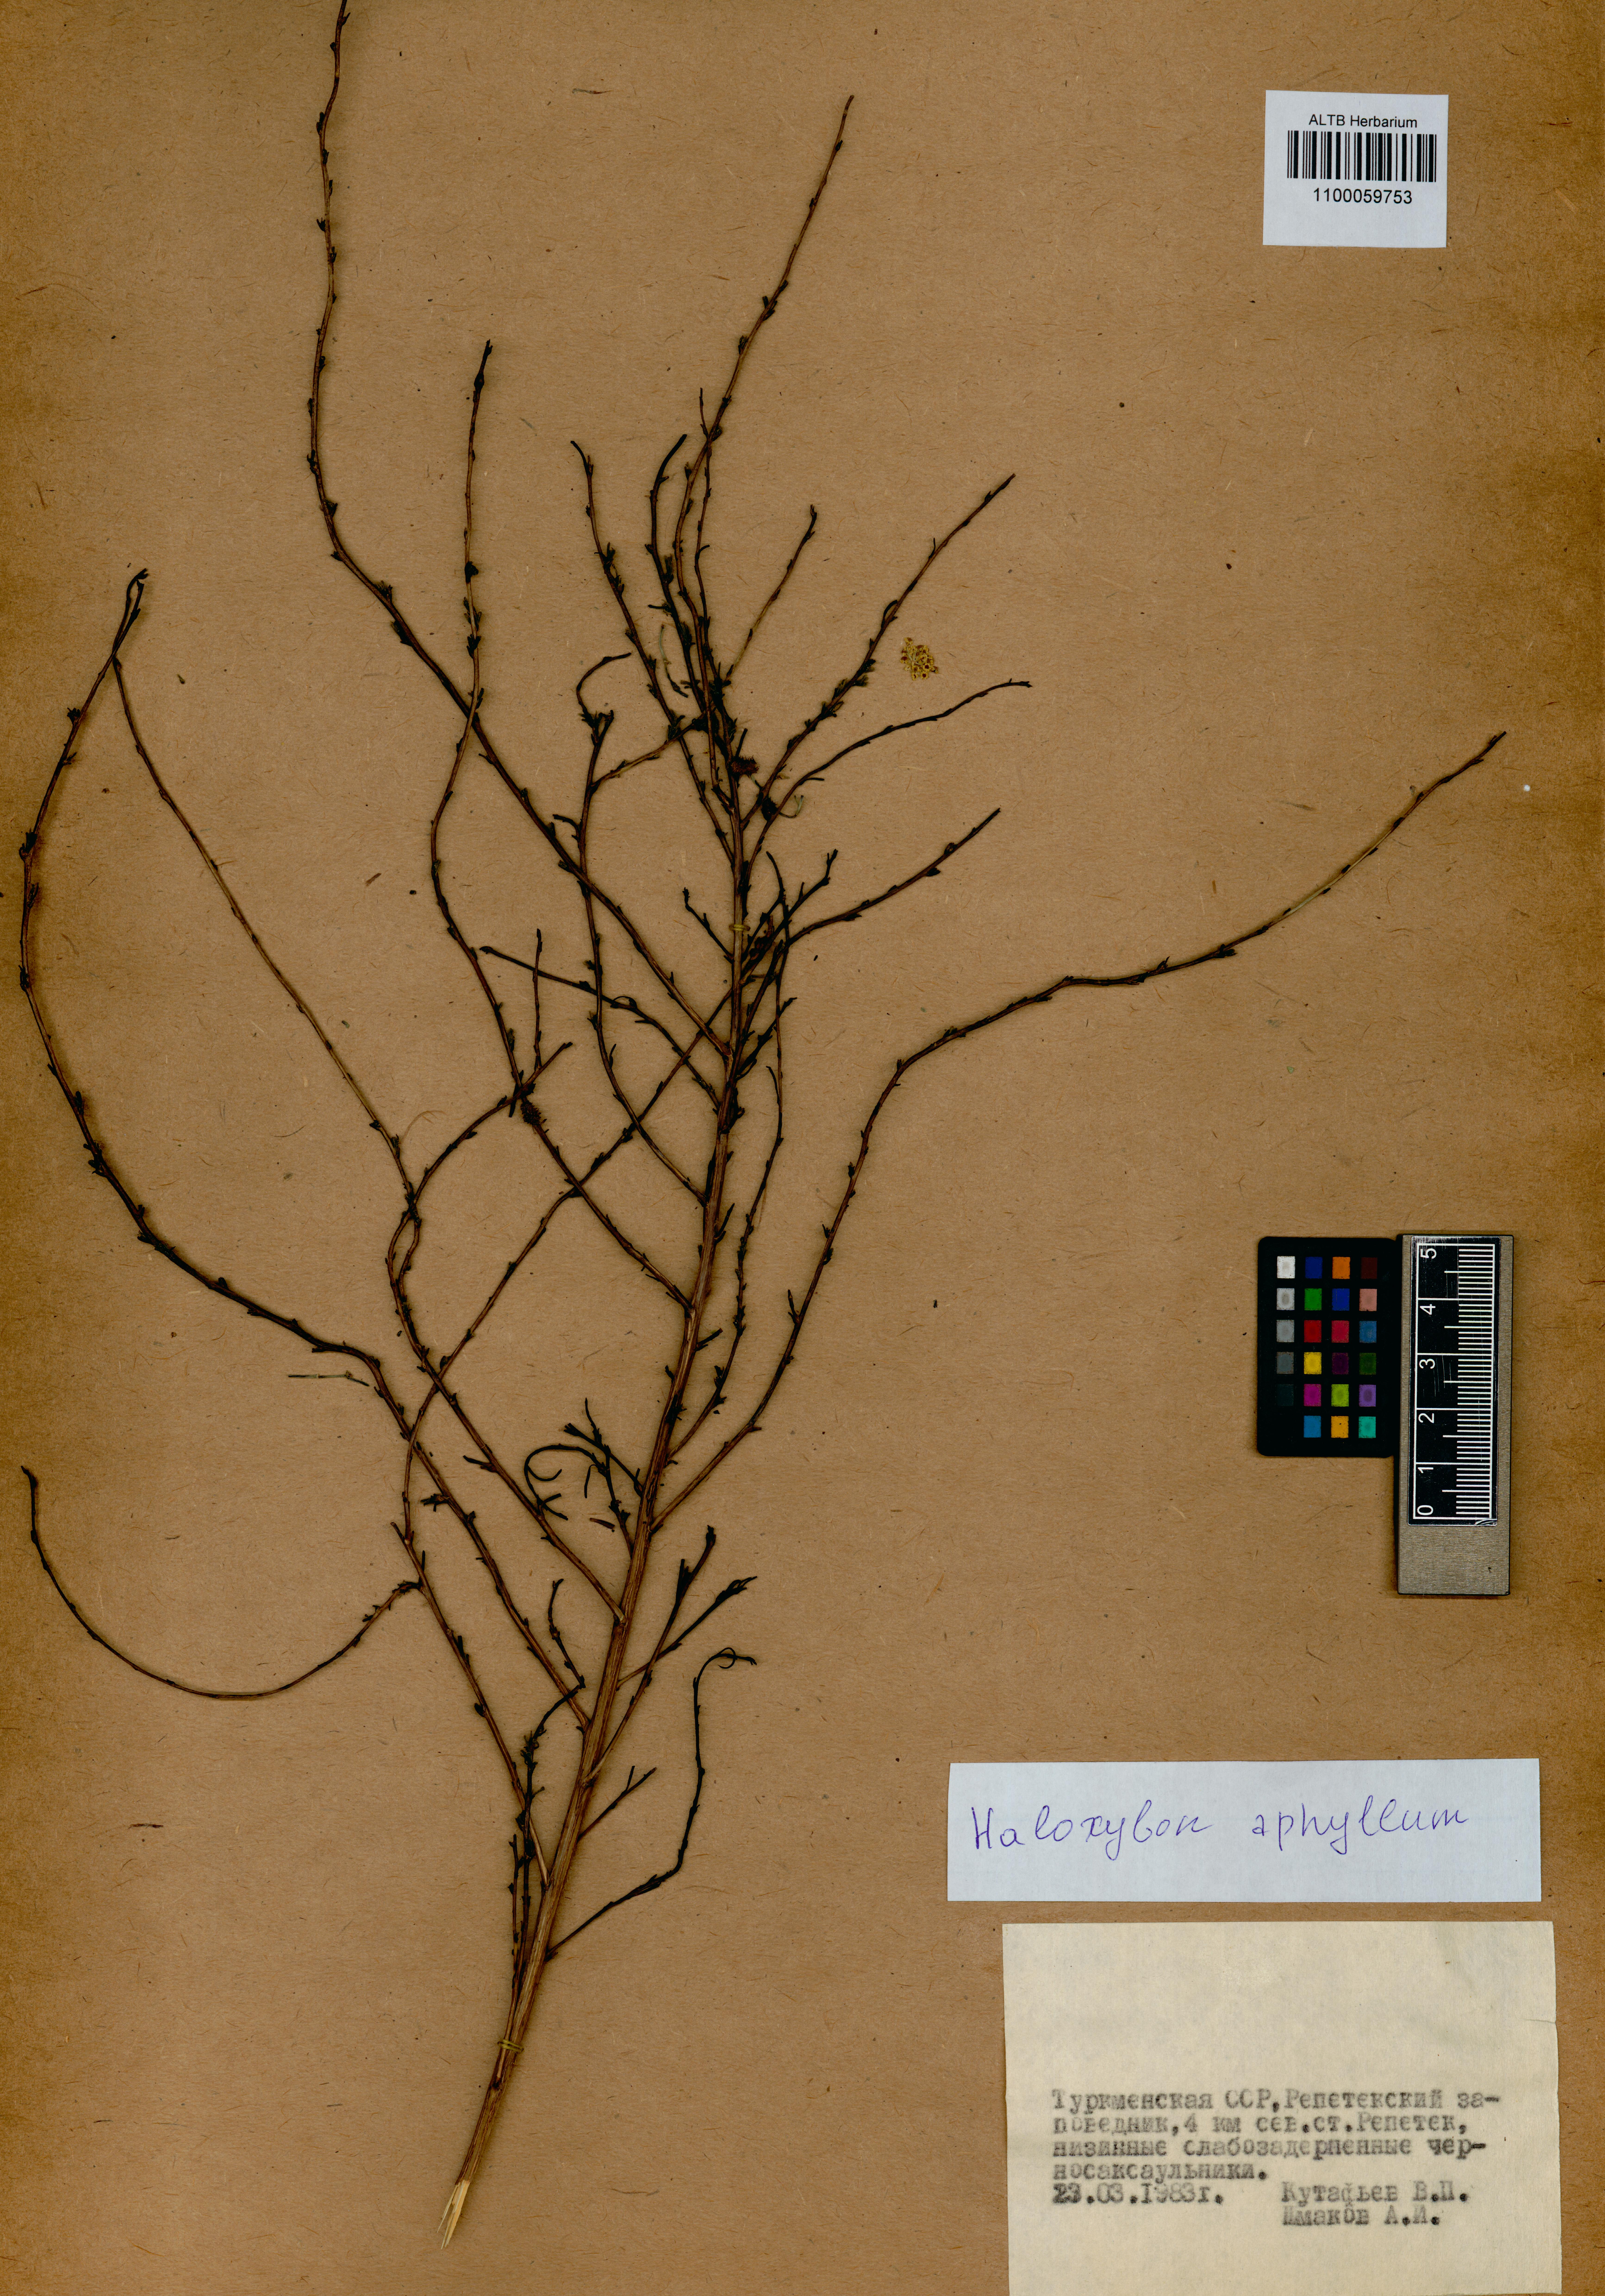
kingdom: Plantae
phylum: Tracheophyta
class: Magnoliopsida
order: Caryophyllales
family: Amaranthaceae
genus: Haloxylon
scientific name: Haloxylon ammodendron
